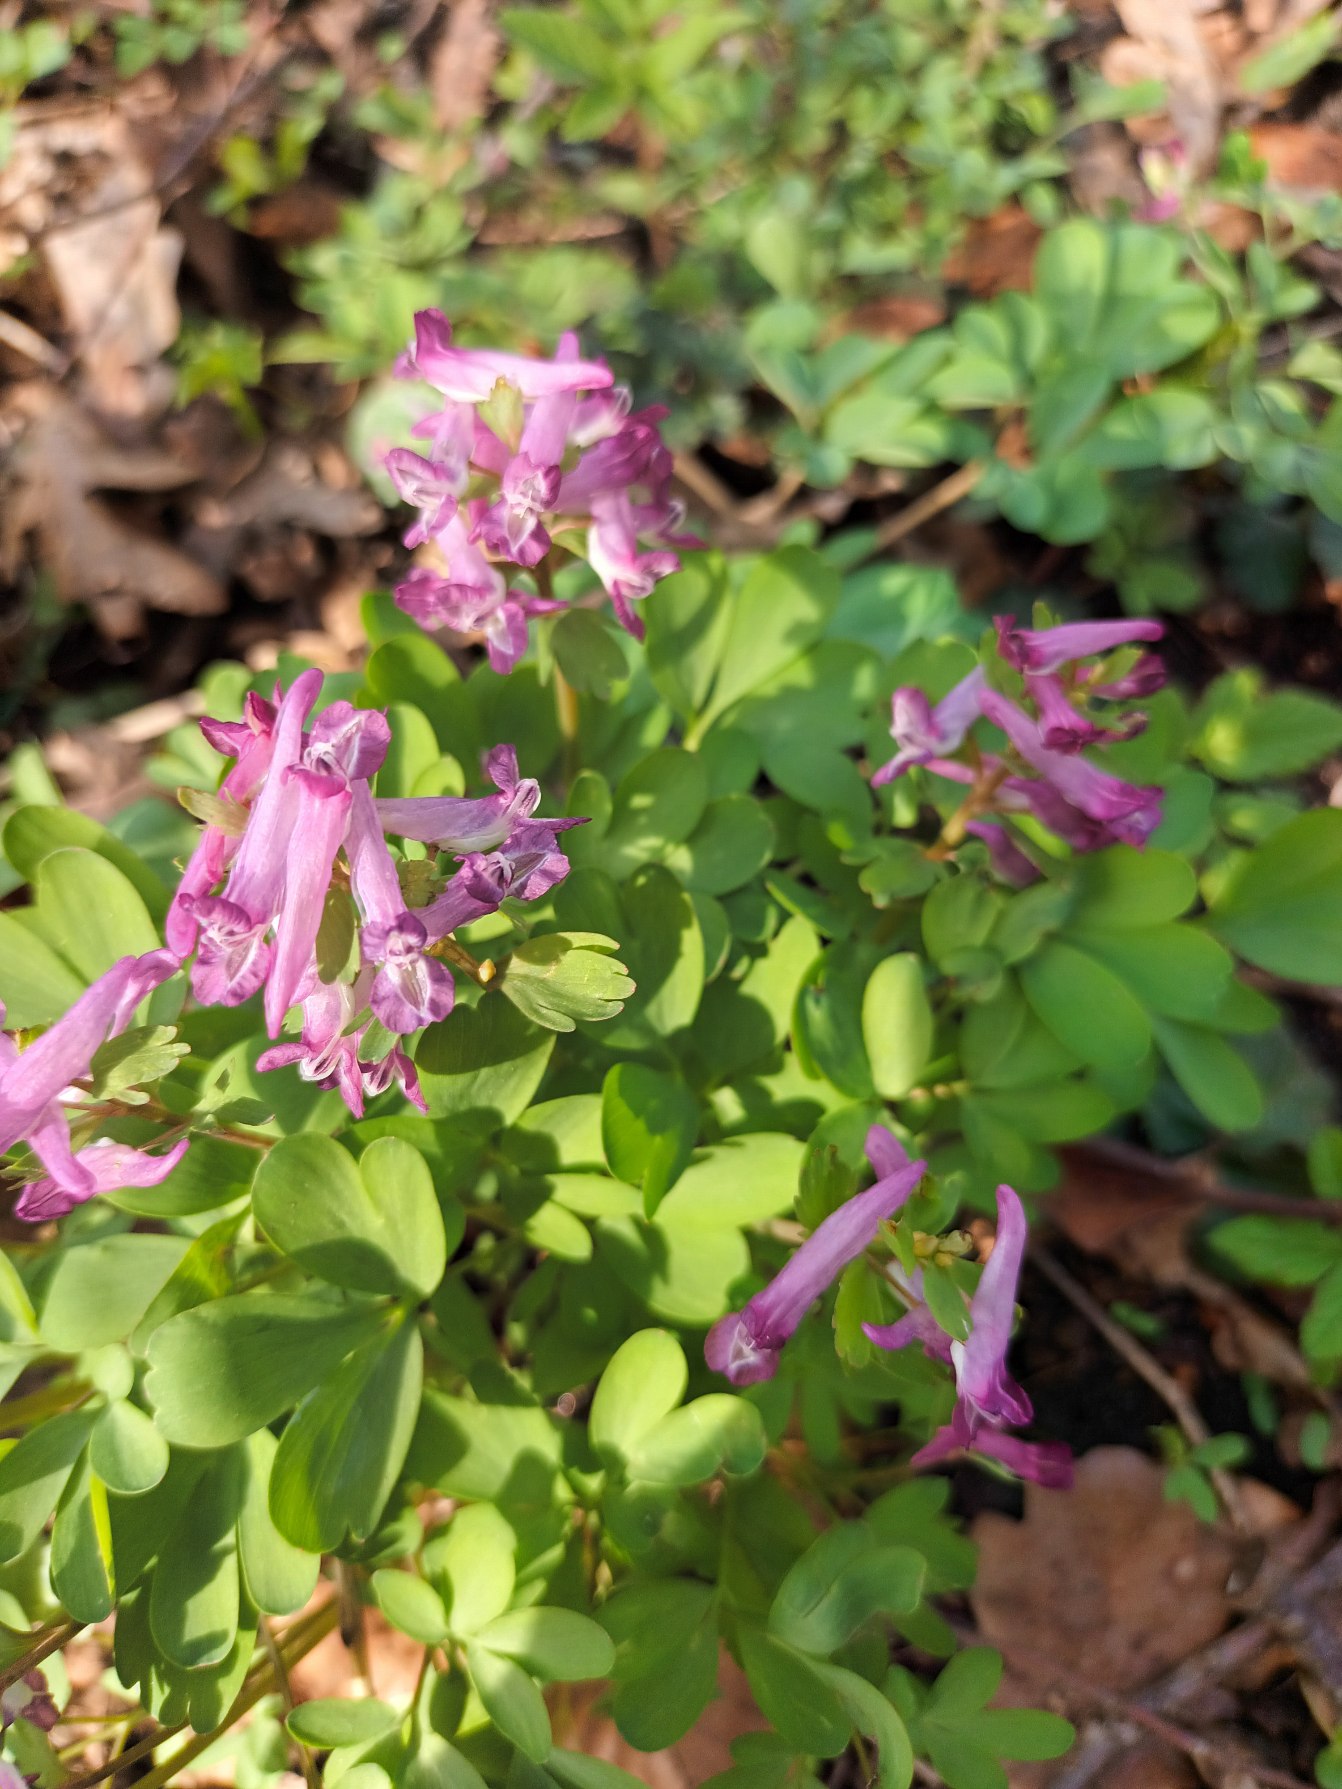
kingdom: Plantae
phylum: Tracheophyta
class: Magnoliopsida
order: Ranunculales
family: Papaveraceae
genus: Corydalis
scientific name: Corydalis solida
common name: Langstilket lærkespore
